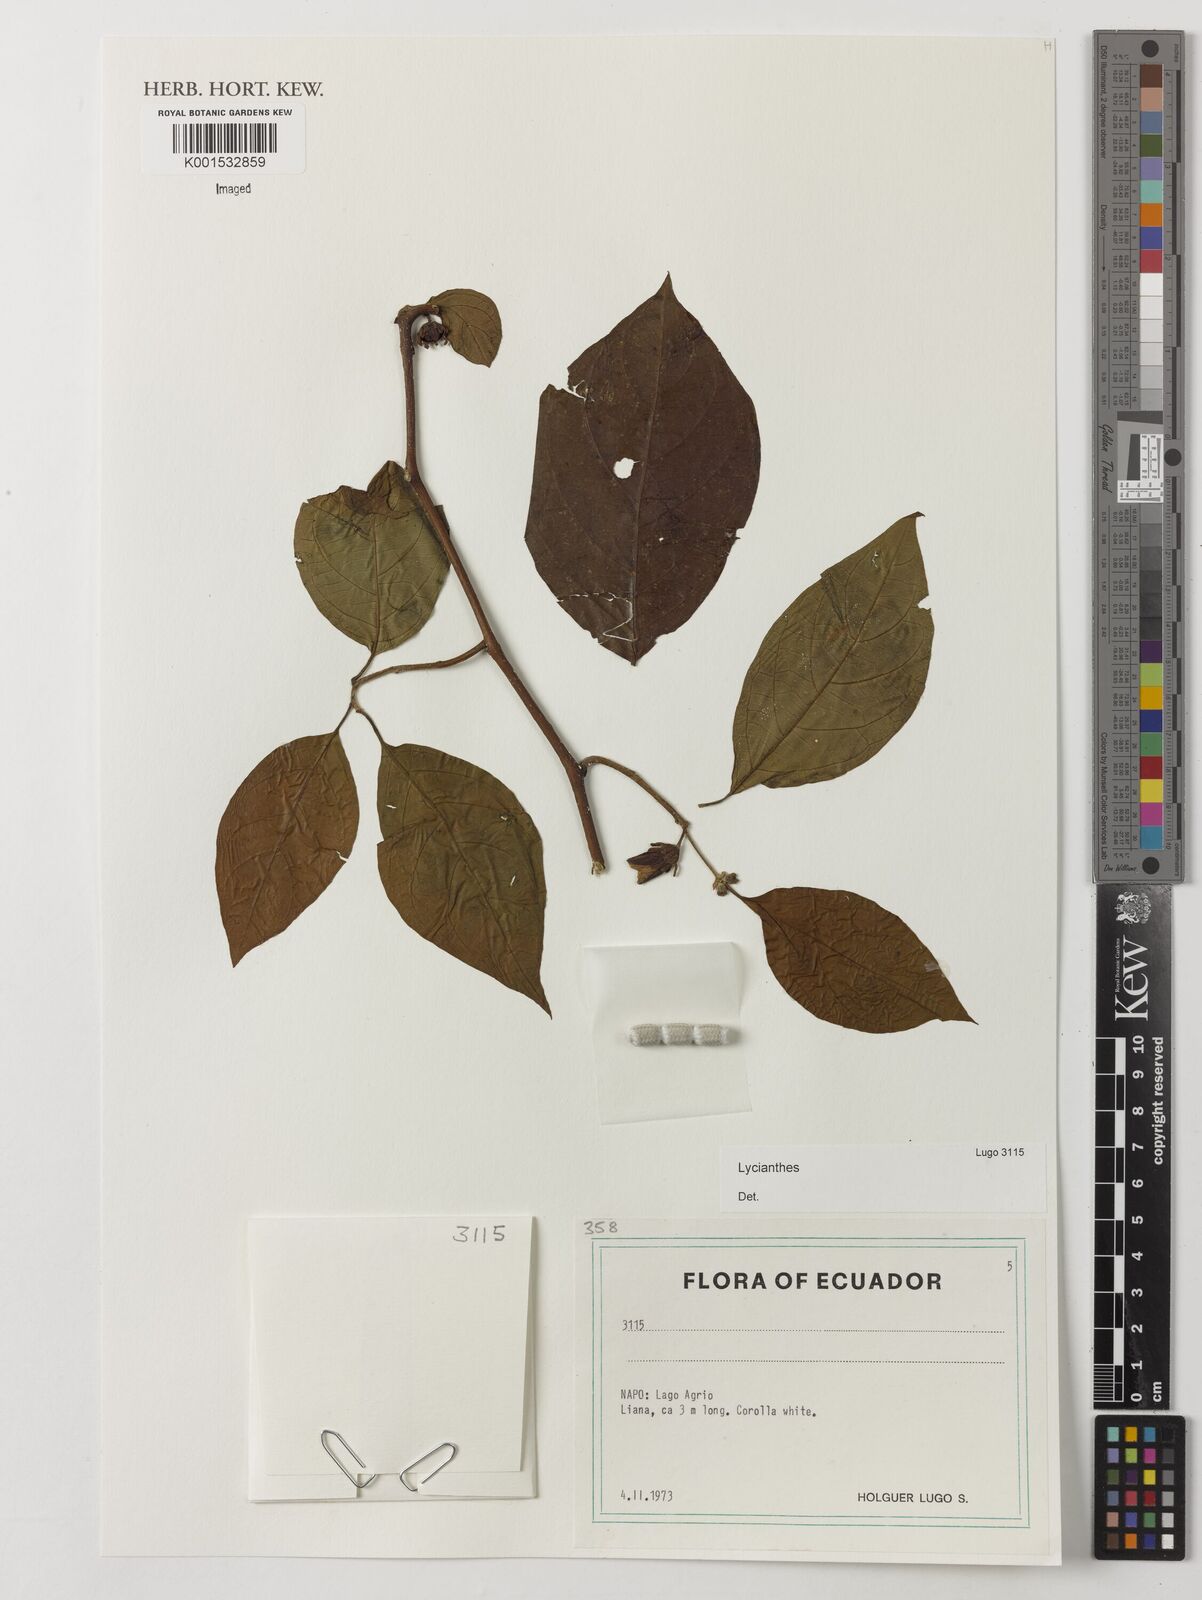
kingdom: Plantae
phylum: Tracheophyta
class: Magnoliopsida
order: Solanales
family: Solanaceae
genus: Lycianthes
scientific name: Lycianthes
